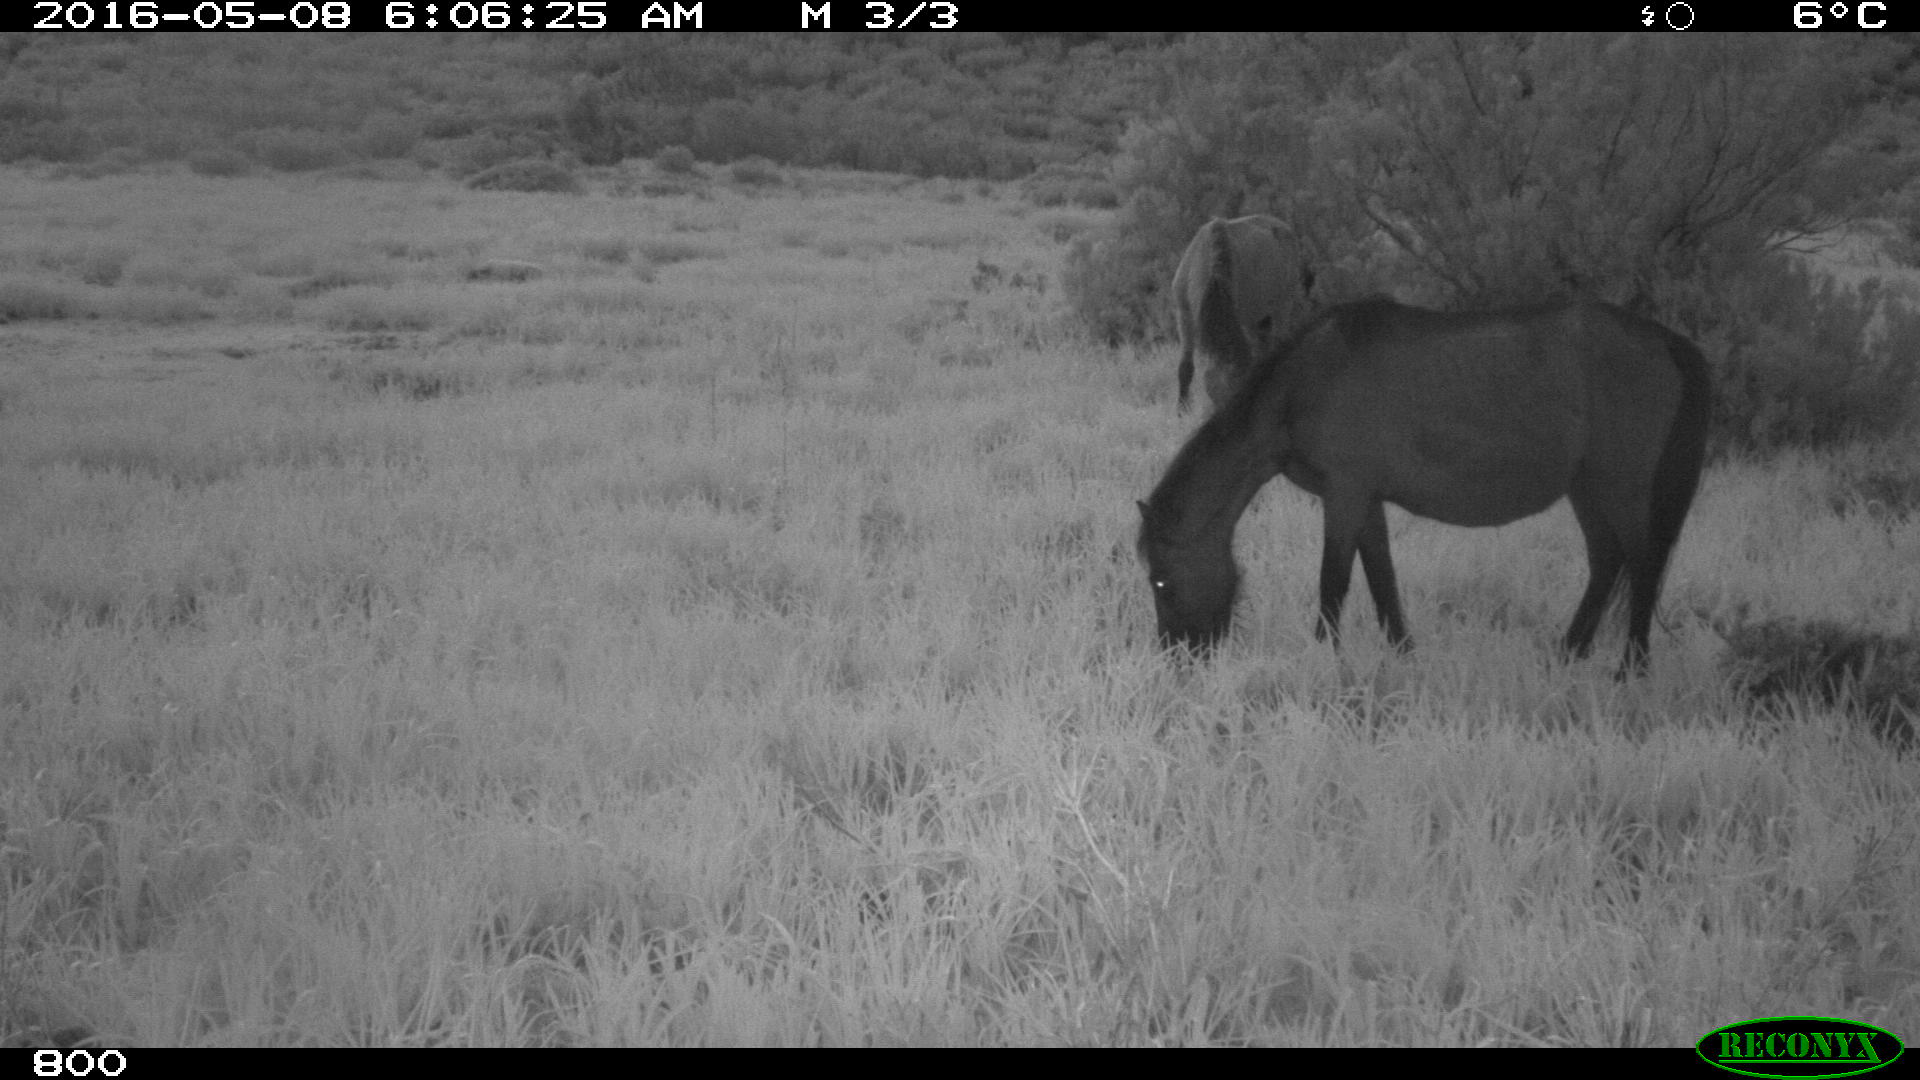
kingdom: Animalia
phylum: Chordata
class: Mammalia
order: Perissodactyla
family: Equidae
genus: Equus
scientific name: Equus caballus
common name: Horse
